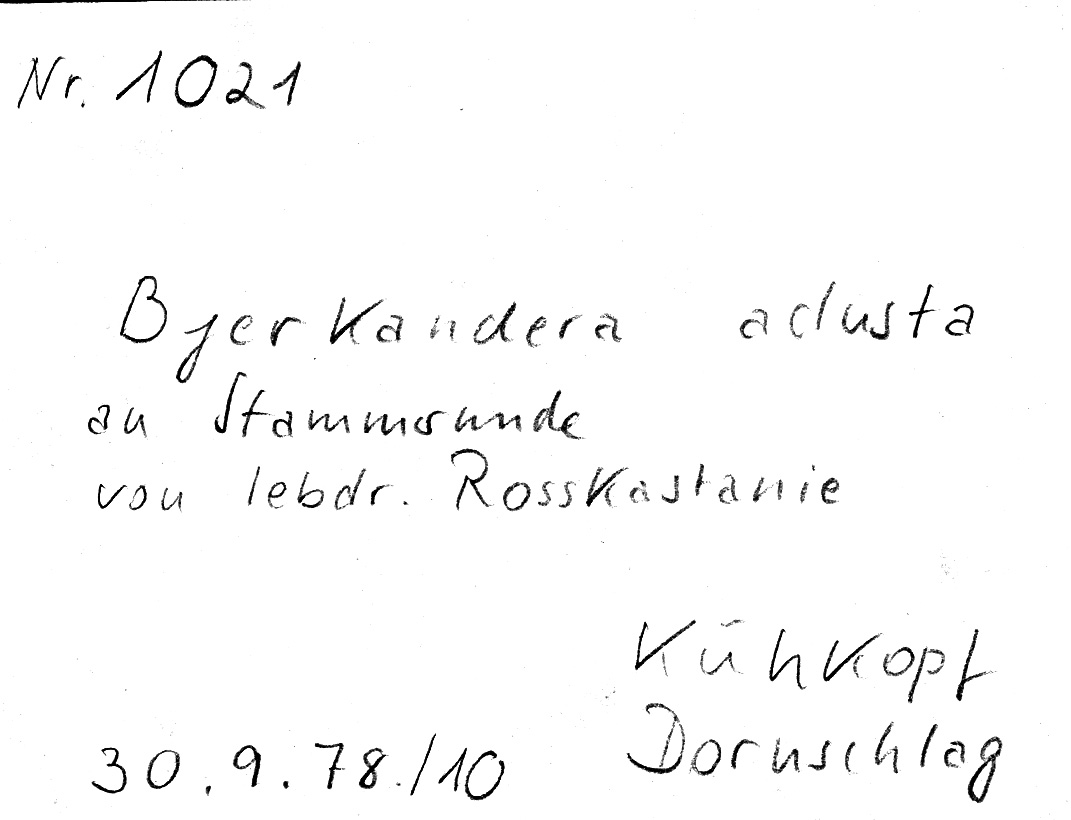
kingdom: Fungi
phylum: Basidiomycota
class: Agaricomycetes
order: Polyporales
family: Phanerochaetaceae
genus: Bjerkandera
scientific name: Bjerkandera adusta
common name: Smoky bracket
